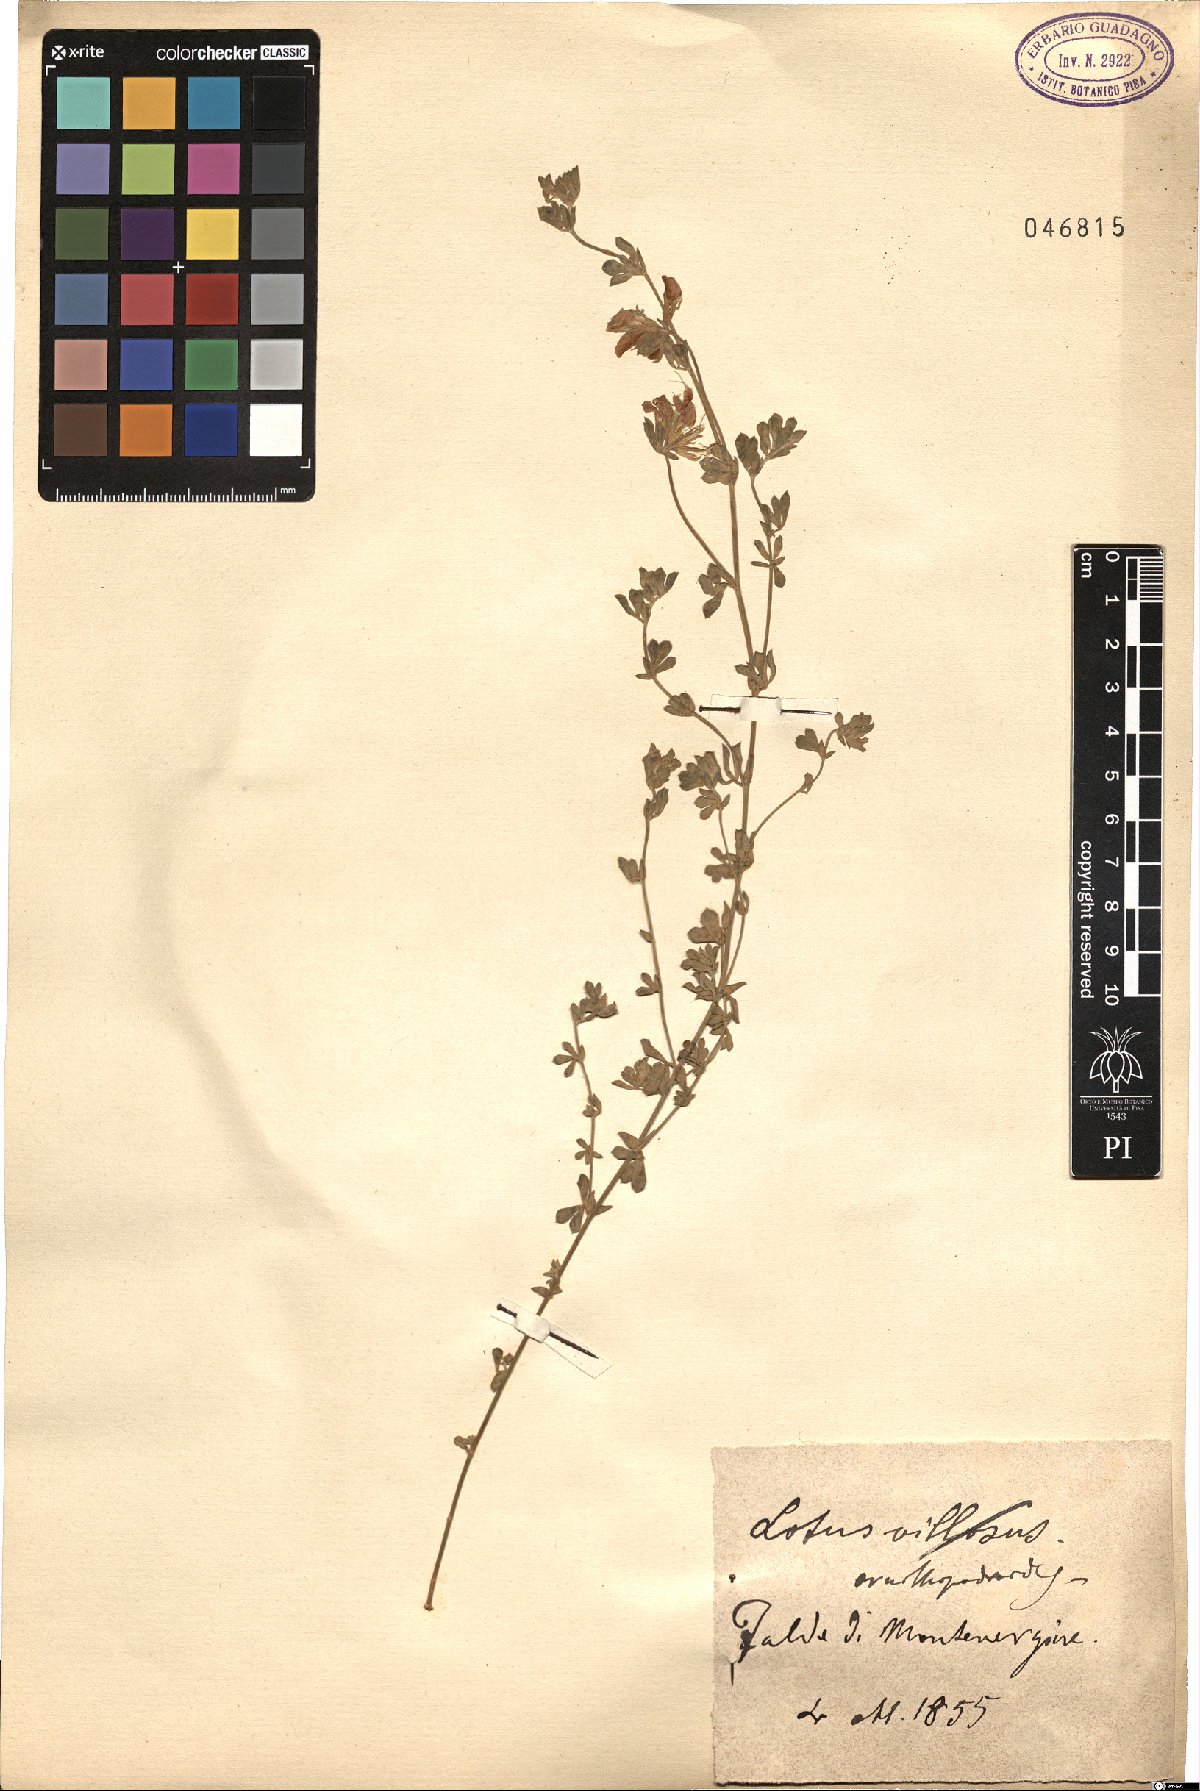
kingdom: Plantae
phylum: Tracheophyta
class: Magnoliopsida
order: Fabales
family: Fabaceae
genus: Lotus
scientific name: Lotus ornithopodioides
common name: Southern bird's-foot trefoil
